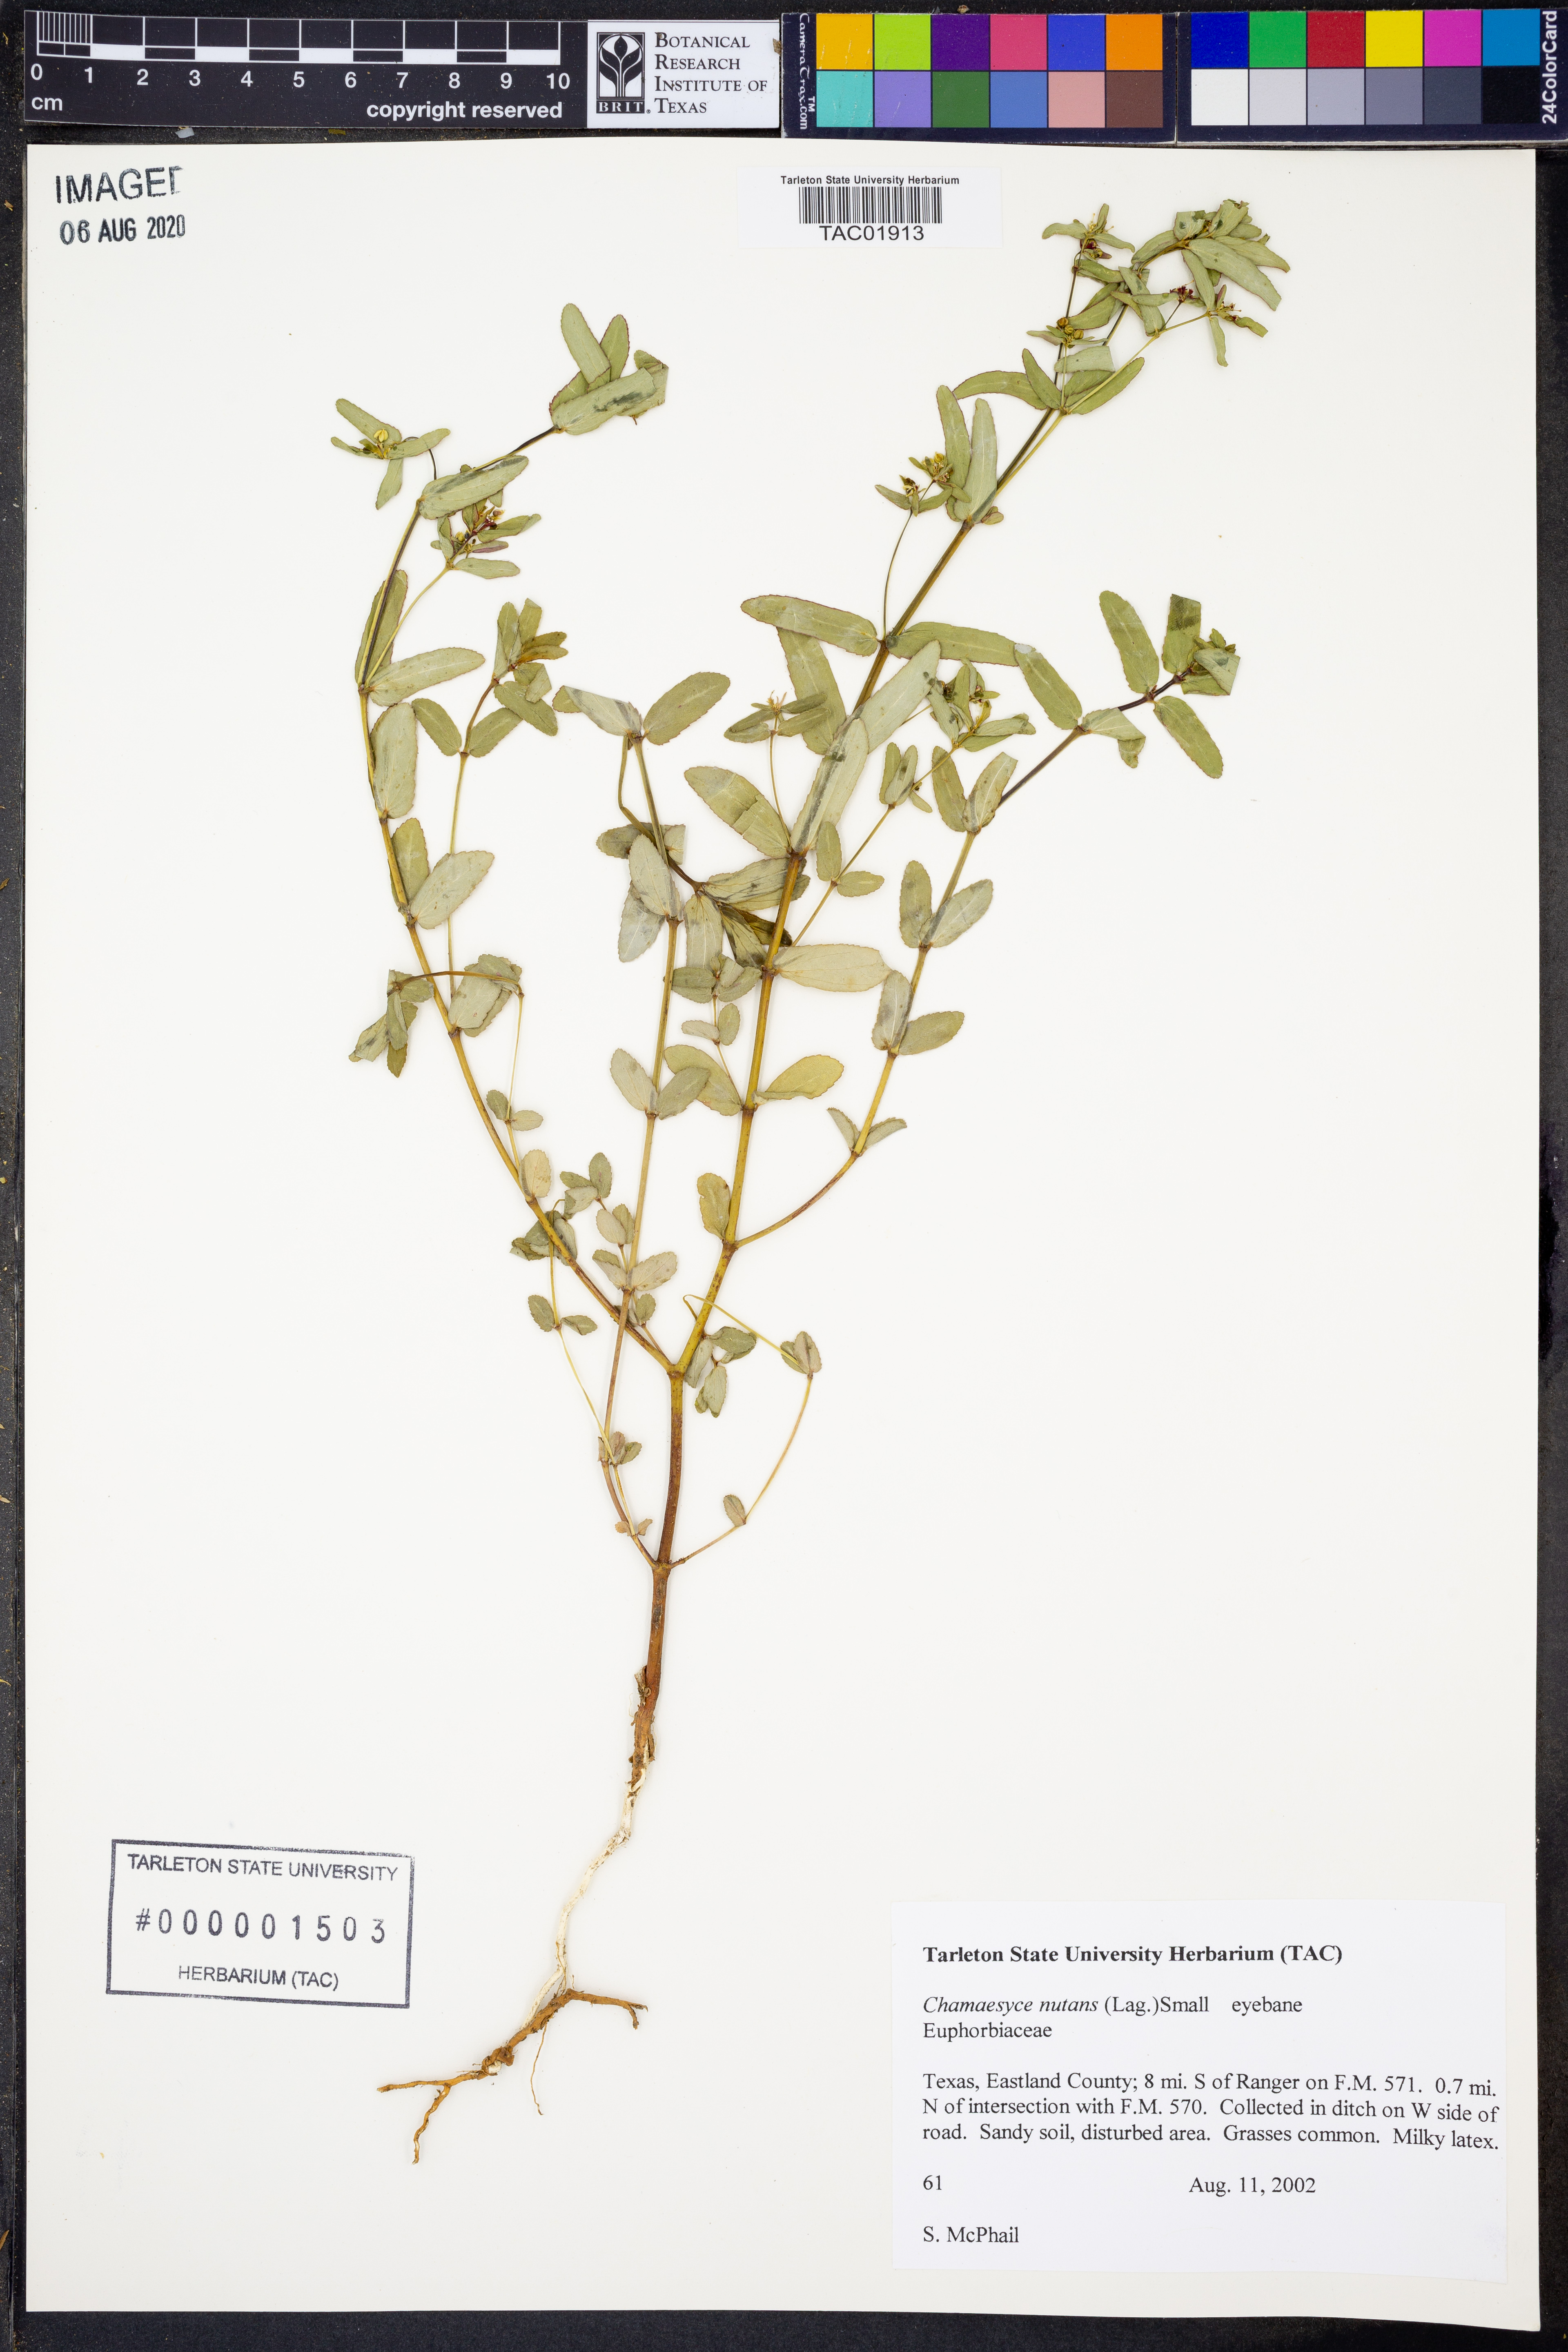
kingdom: Plantae
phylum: Tracheophyta
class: Magnoliopsida
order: Malpighiales
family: Euphorbiaceae
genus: Euphorbia
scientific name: Euphorbia nutans
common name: Eyebane
